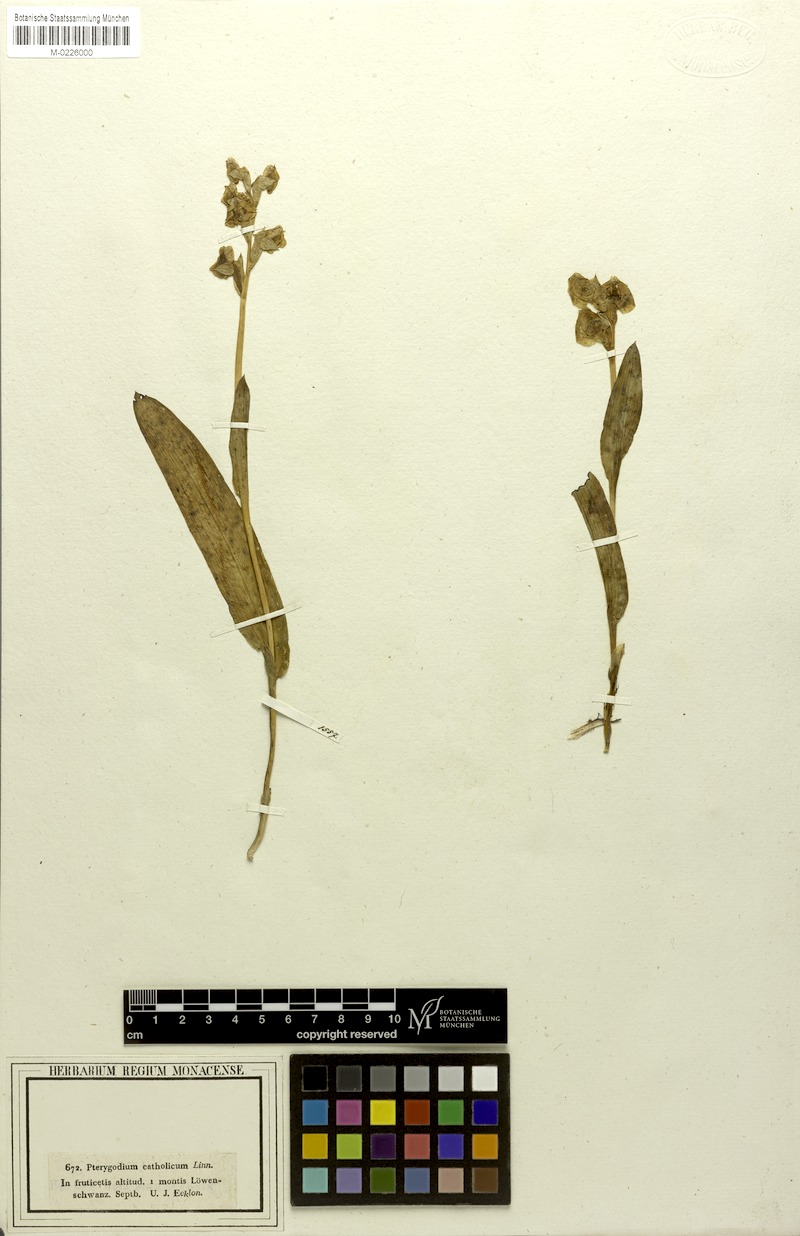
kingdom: Plantae
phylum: Tracheophyta
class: Liliopsida
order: Asparagales
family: Orchidaceae
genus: Pterygodium
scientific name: Pterygodium catholicum
